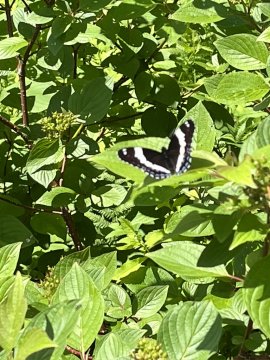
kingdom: Animalia
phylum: Arthropoda
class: Insecta
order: Lepidoptera
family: Nymphalidae
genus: Limenitis
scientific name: Limenitis arthemis
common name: Red-spotted Admiral
